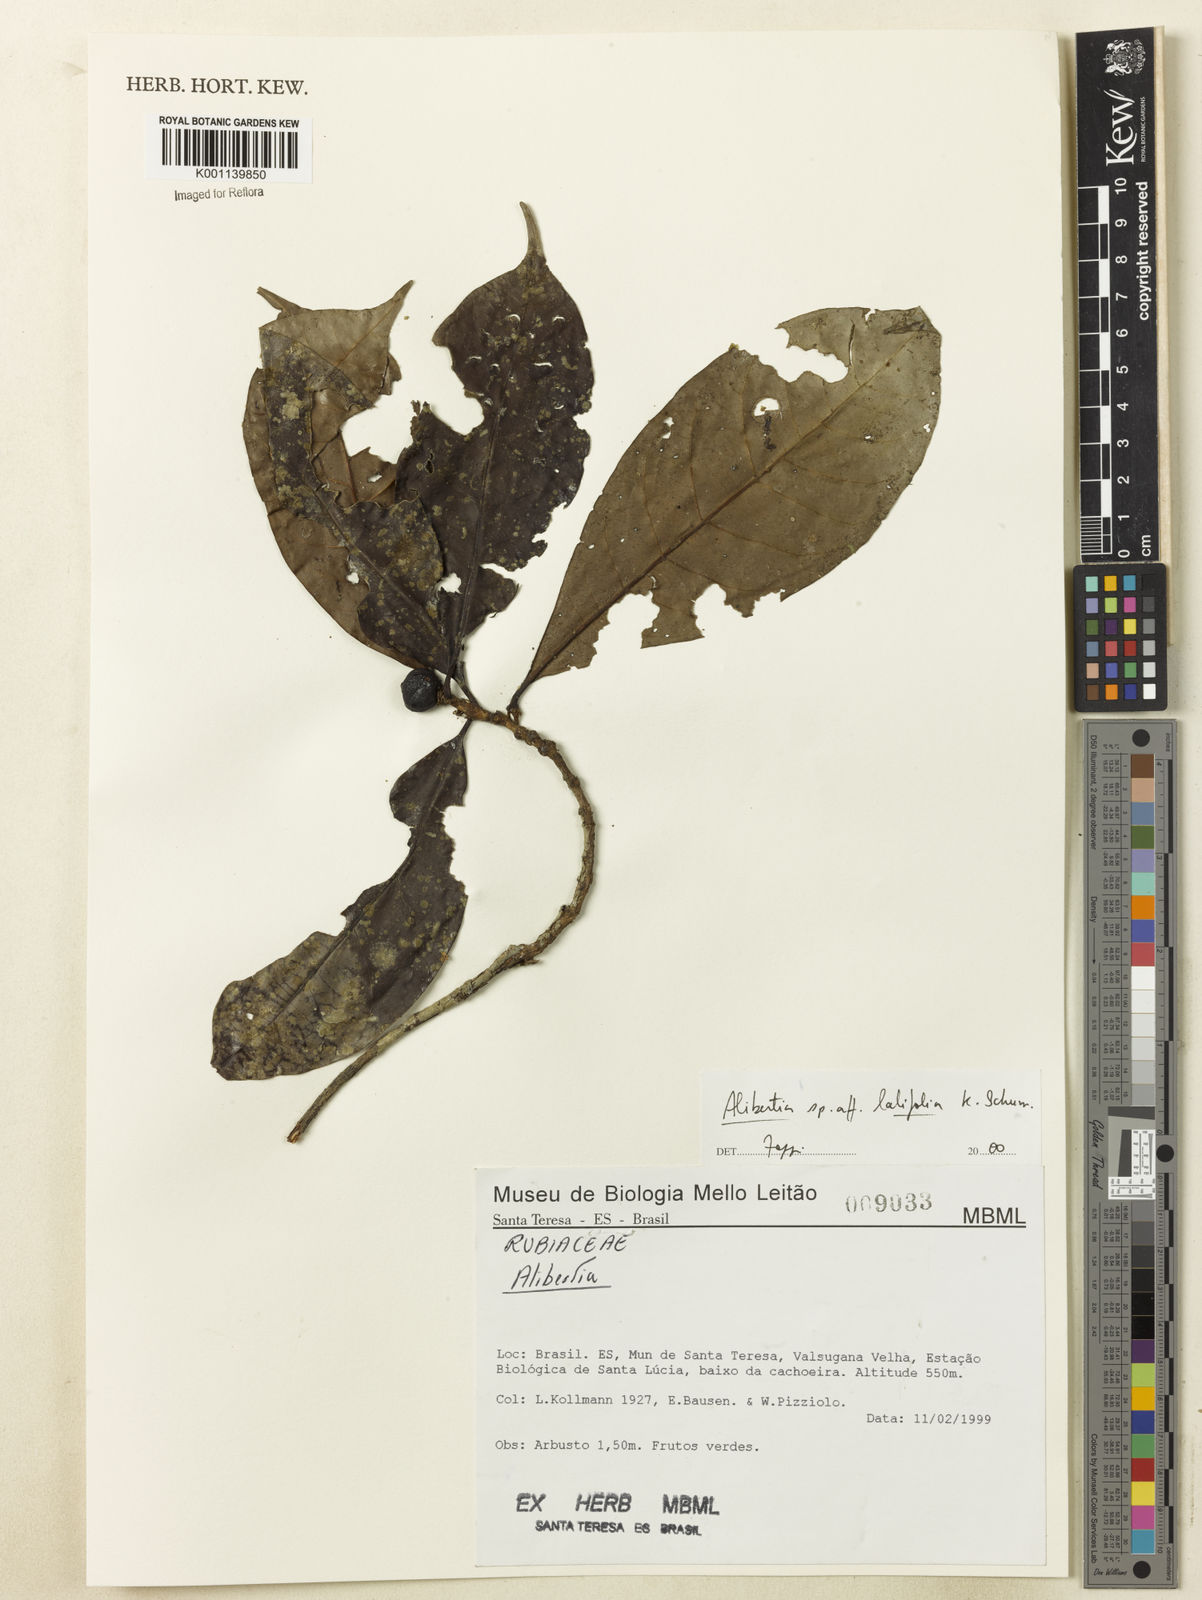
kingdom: Plantae
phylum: Tracheophyta
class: Magnoliopsida
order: Gentianales
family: Rubiaceae
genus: Alibertia
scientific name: Alibertia latifolia
